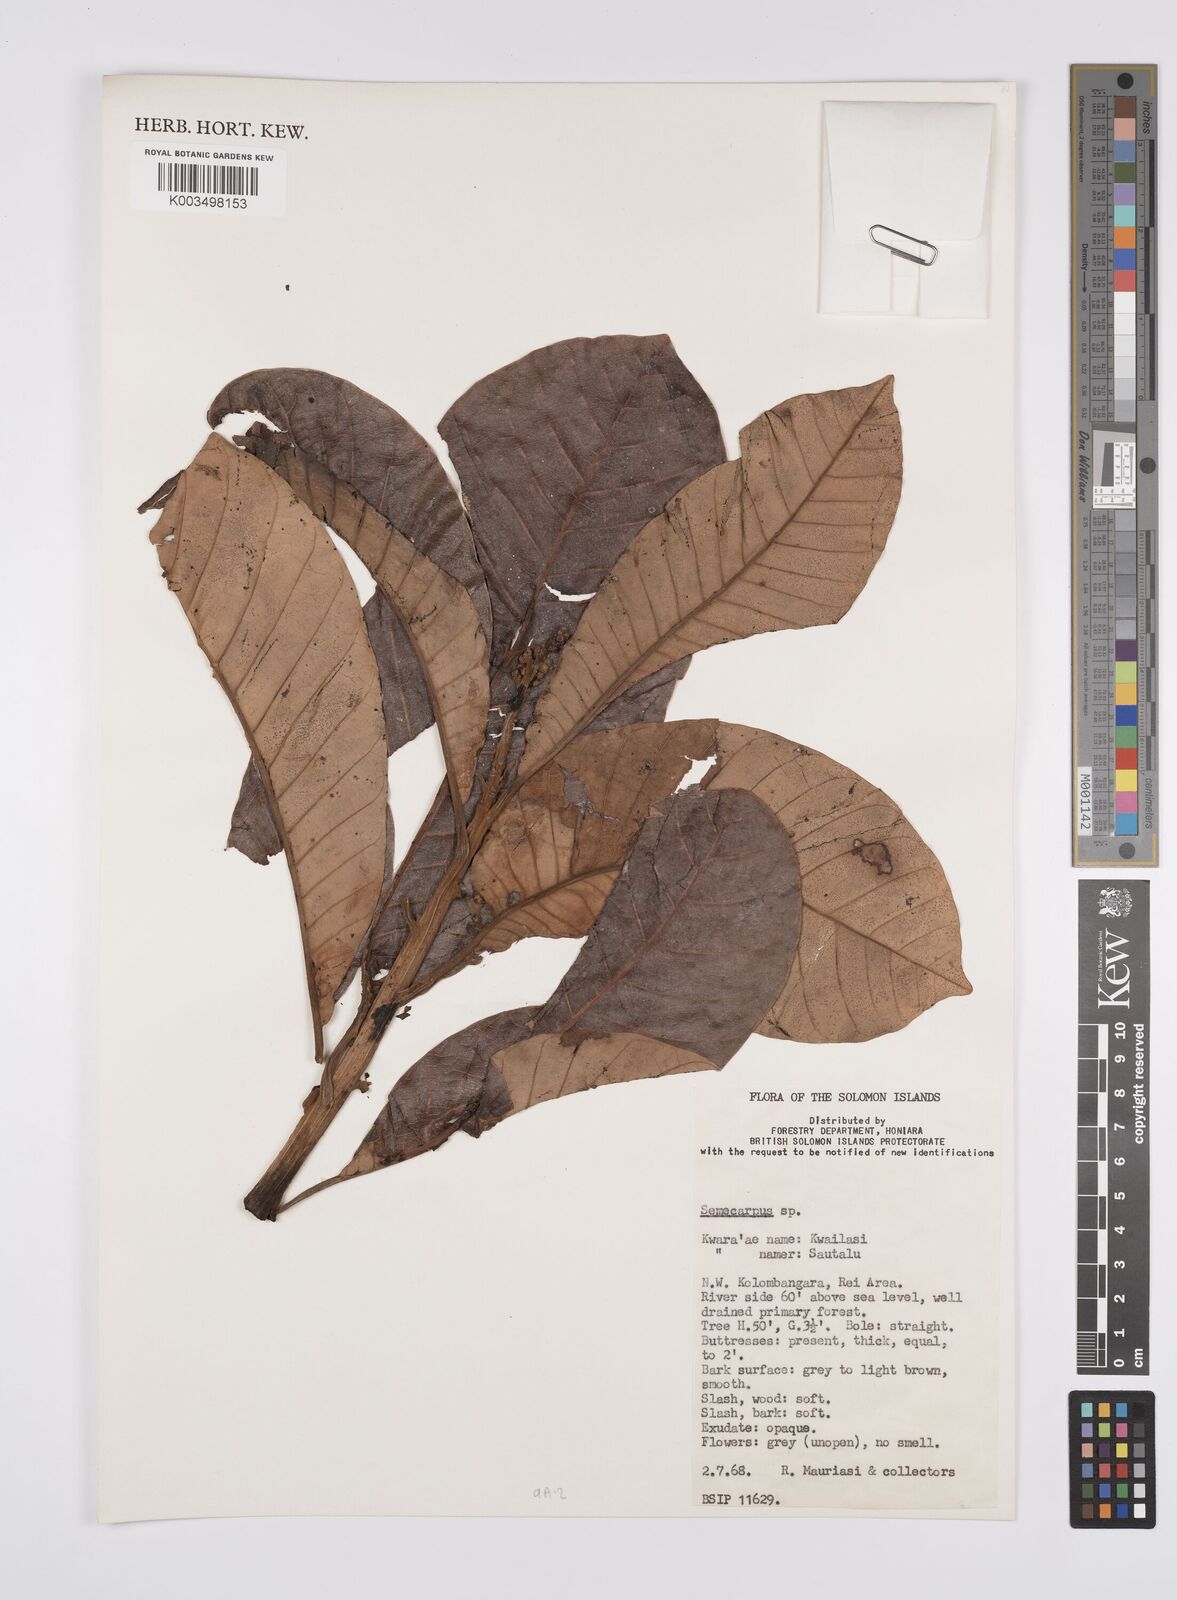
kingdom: Plantae
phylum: Tracheophyta
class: Magnoliopsida
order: Sapindales
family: Anacardiaceae
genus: Semecarpus
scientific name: Semecarpus
